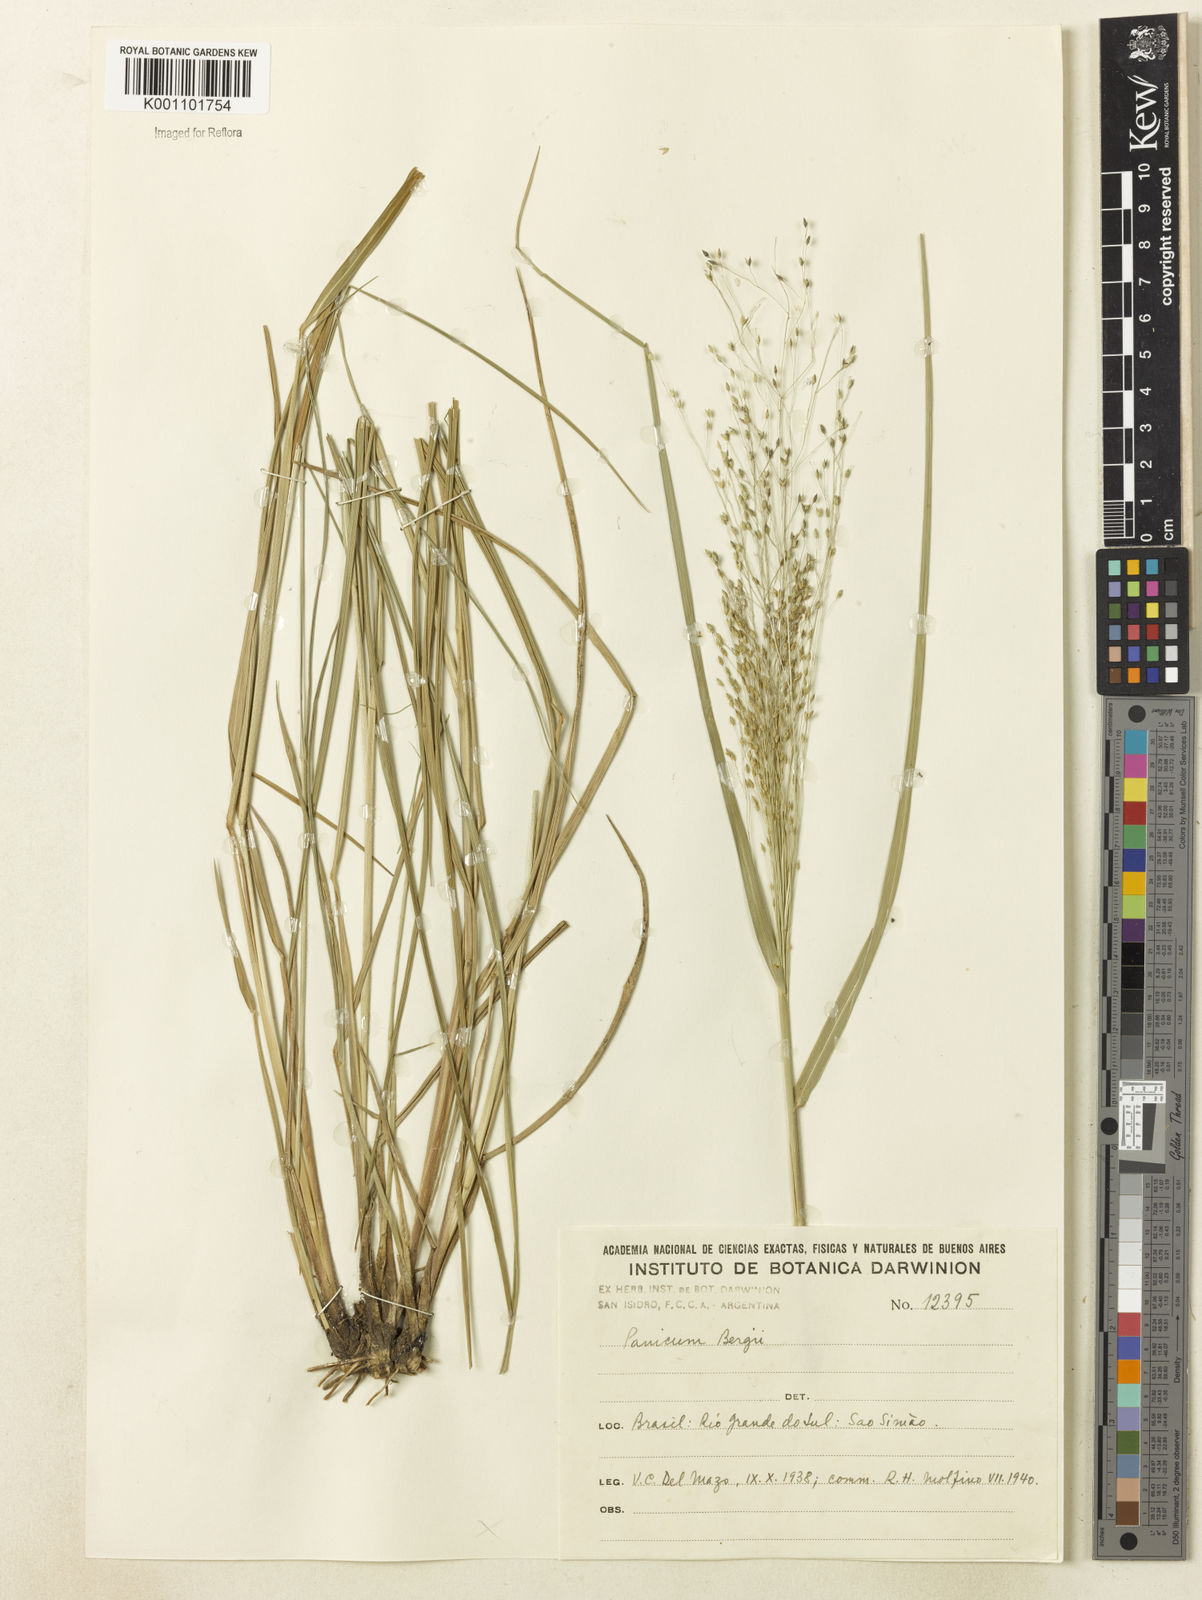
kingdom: Plantae
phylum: Tracheophyta
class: Liliopsida
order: Poales
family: Poaceae
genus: Panicum
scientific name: Panicum bergii
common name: Berg's panicgrass
